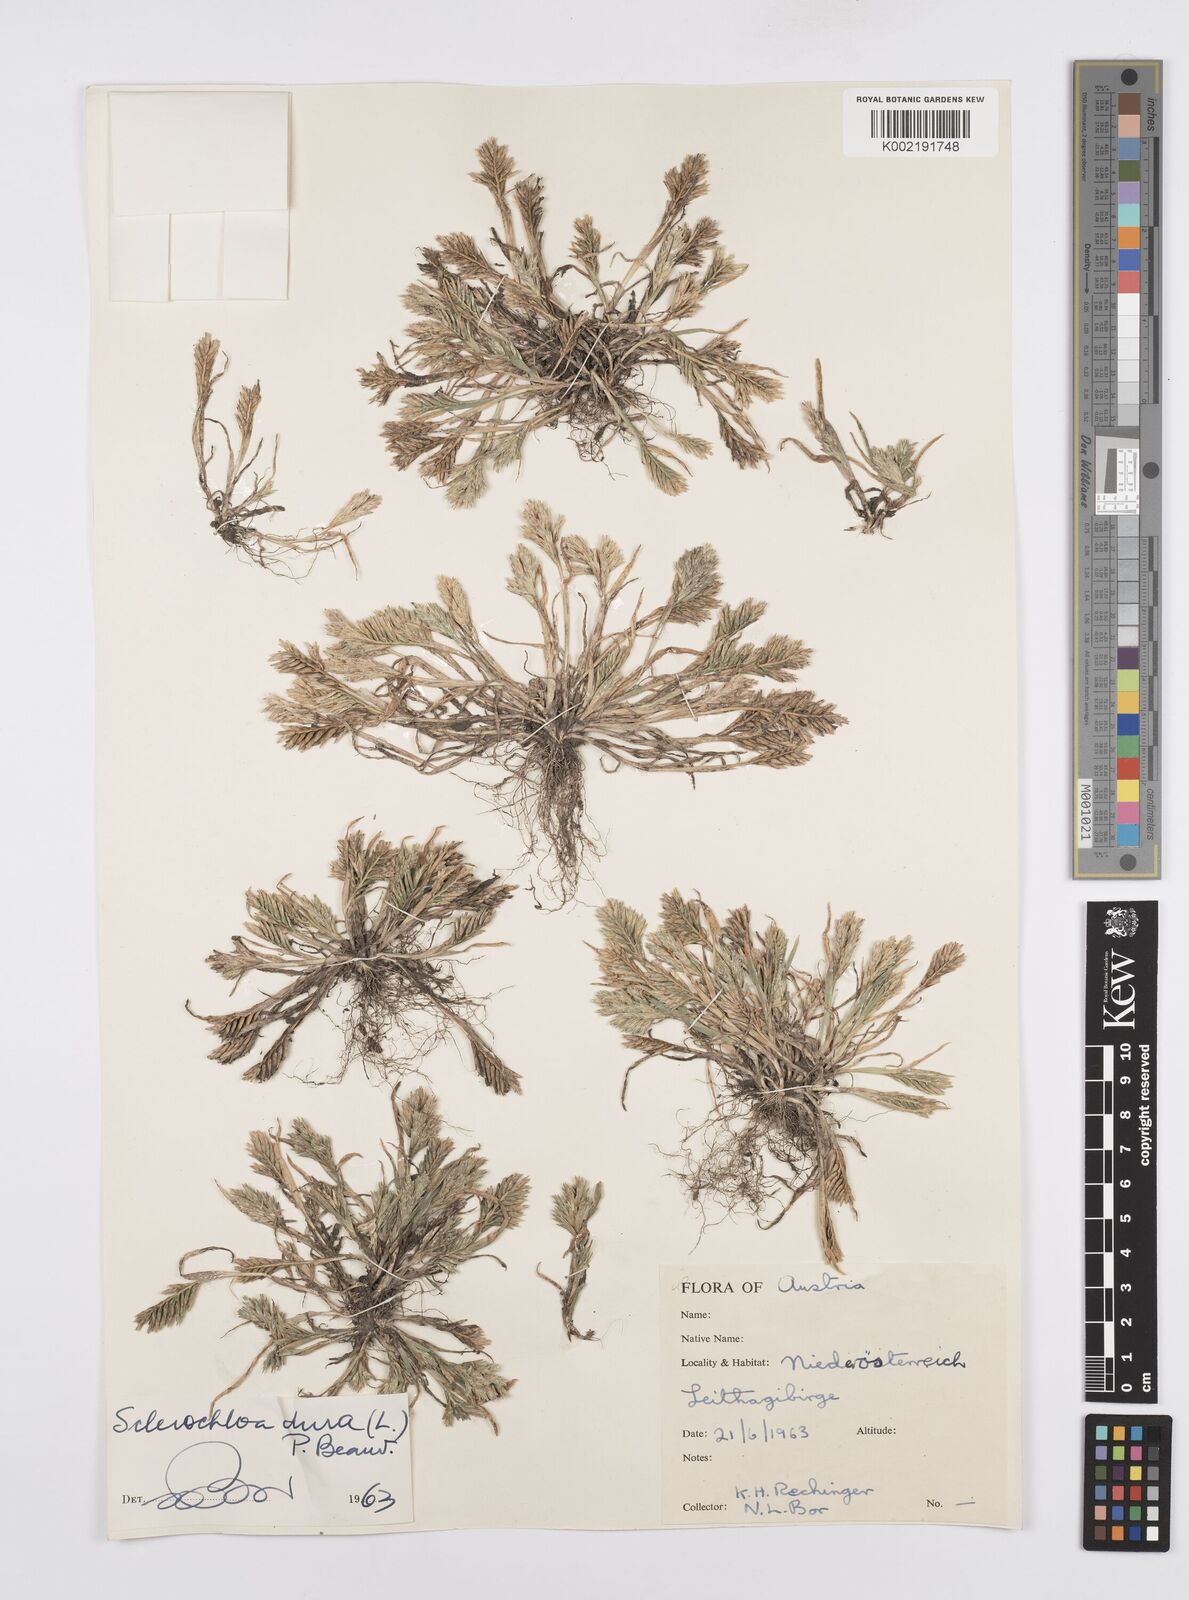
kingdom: Plantae
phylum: Tracheophyta
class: Liliopsida
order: Poales
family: Poaceae
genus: Sclerochloa
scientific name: Sclerochloa dura
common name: Common hardgrass
